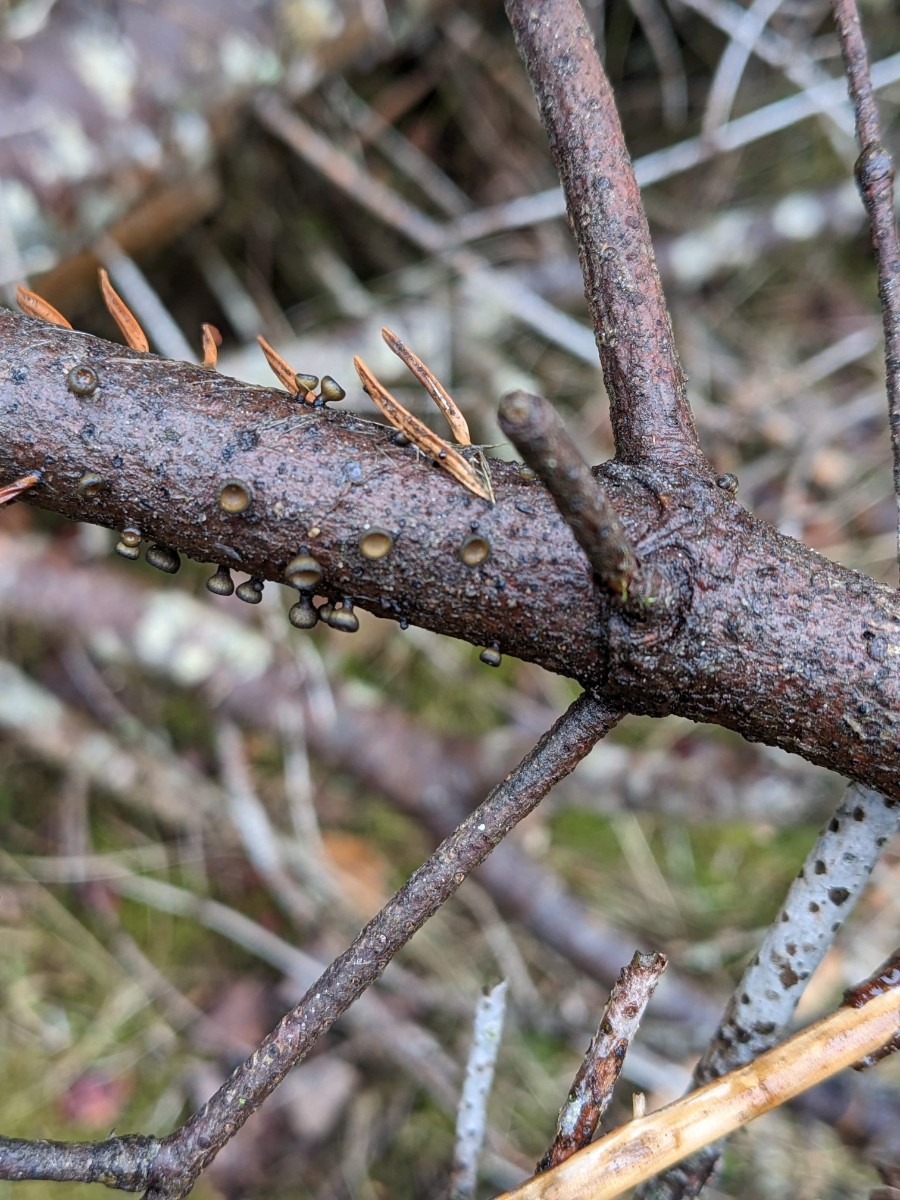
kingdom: Fungi
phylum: Ascomycota
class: Leotiomycetes
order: Helotiales
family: Rutstroemiaceae
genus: Rutstroemia
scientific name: Rutstroemia elatina
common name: ædelgran-brunskive
